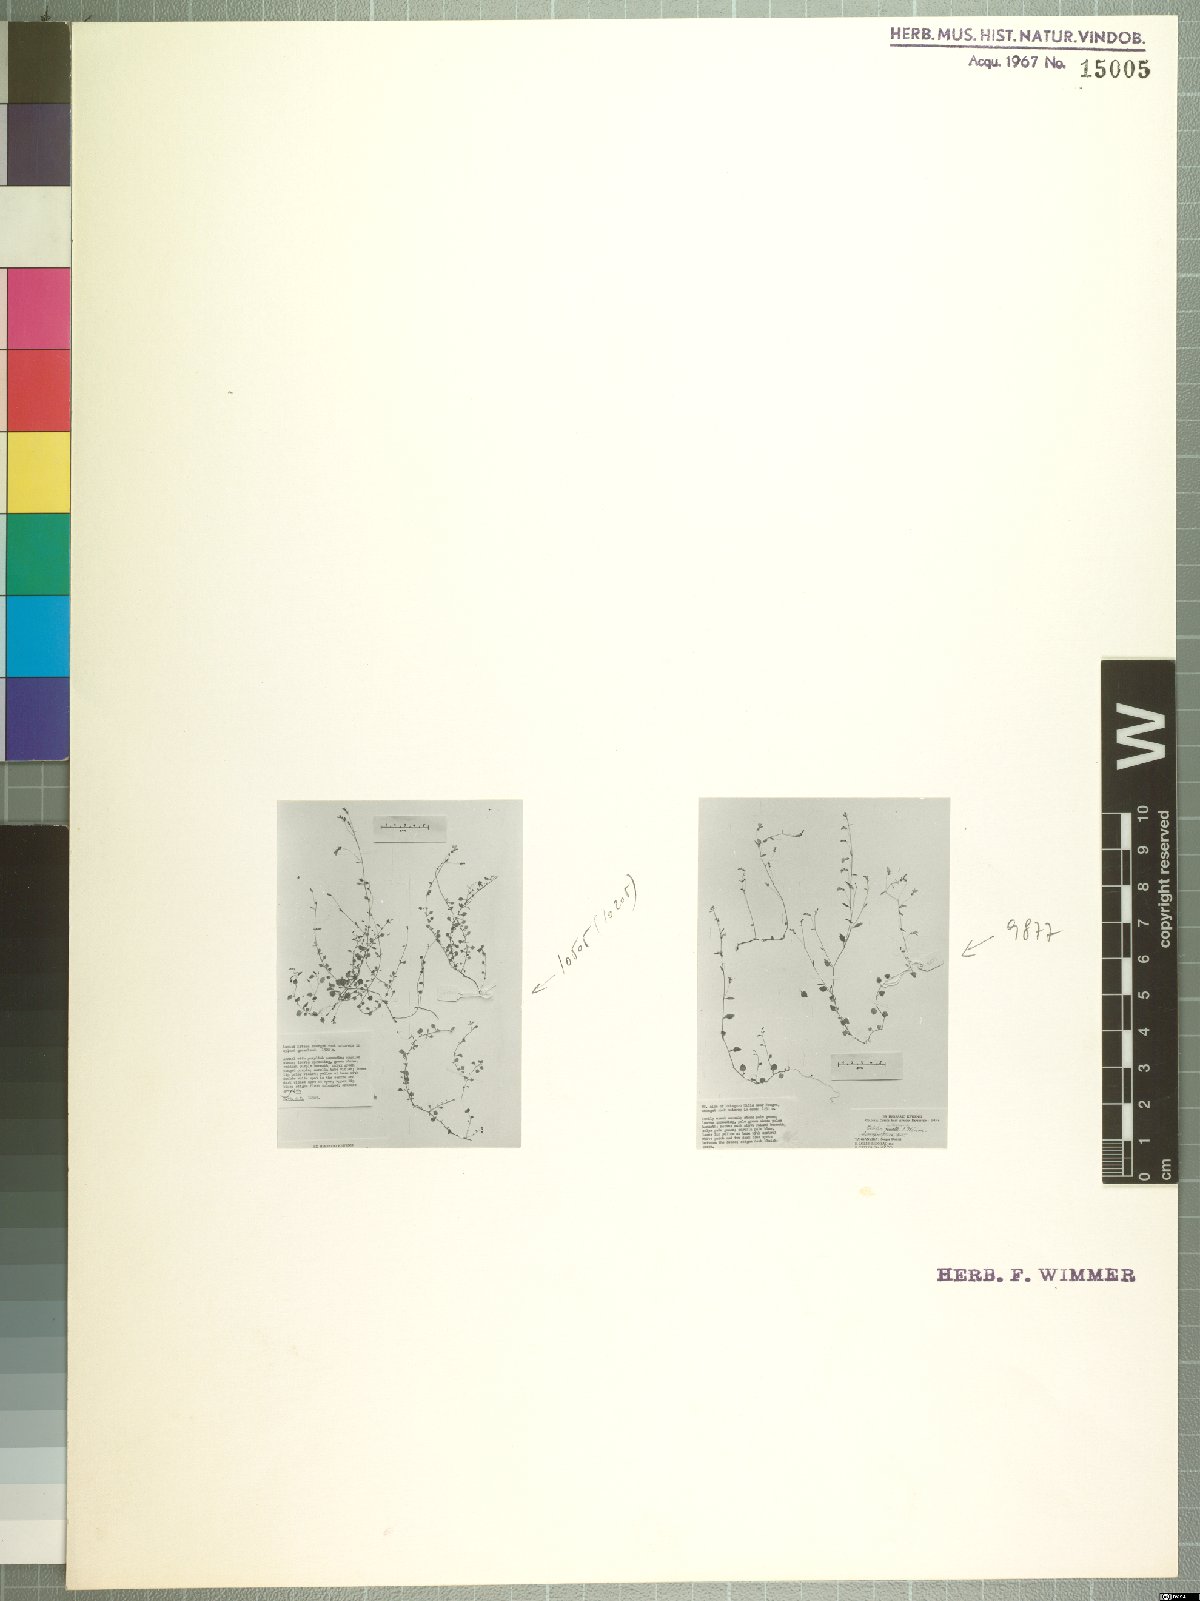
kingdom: Plantae
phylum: Tracheophyta
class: Magnoliopsida
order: Asterales
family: Campanulaceae
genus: Lobelia
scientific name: Lobelia trullifolia
